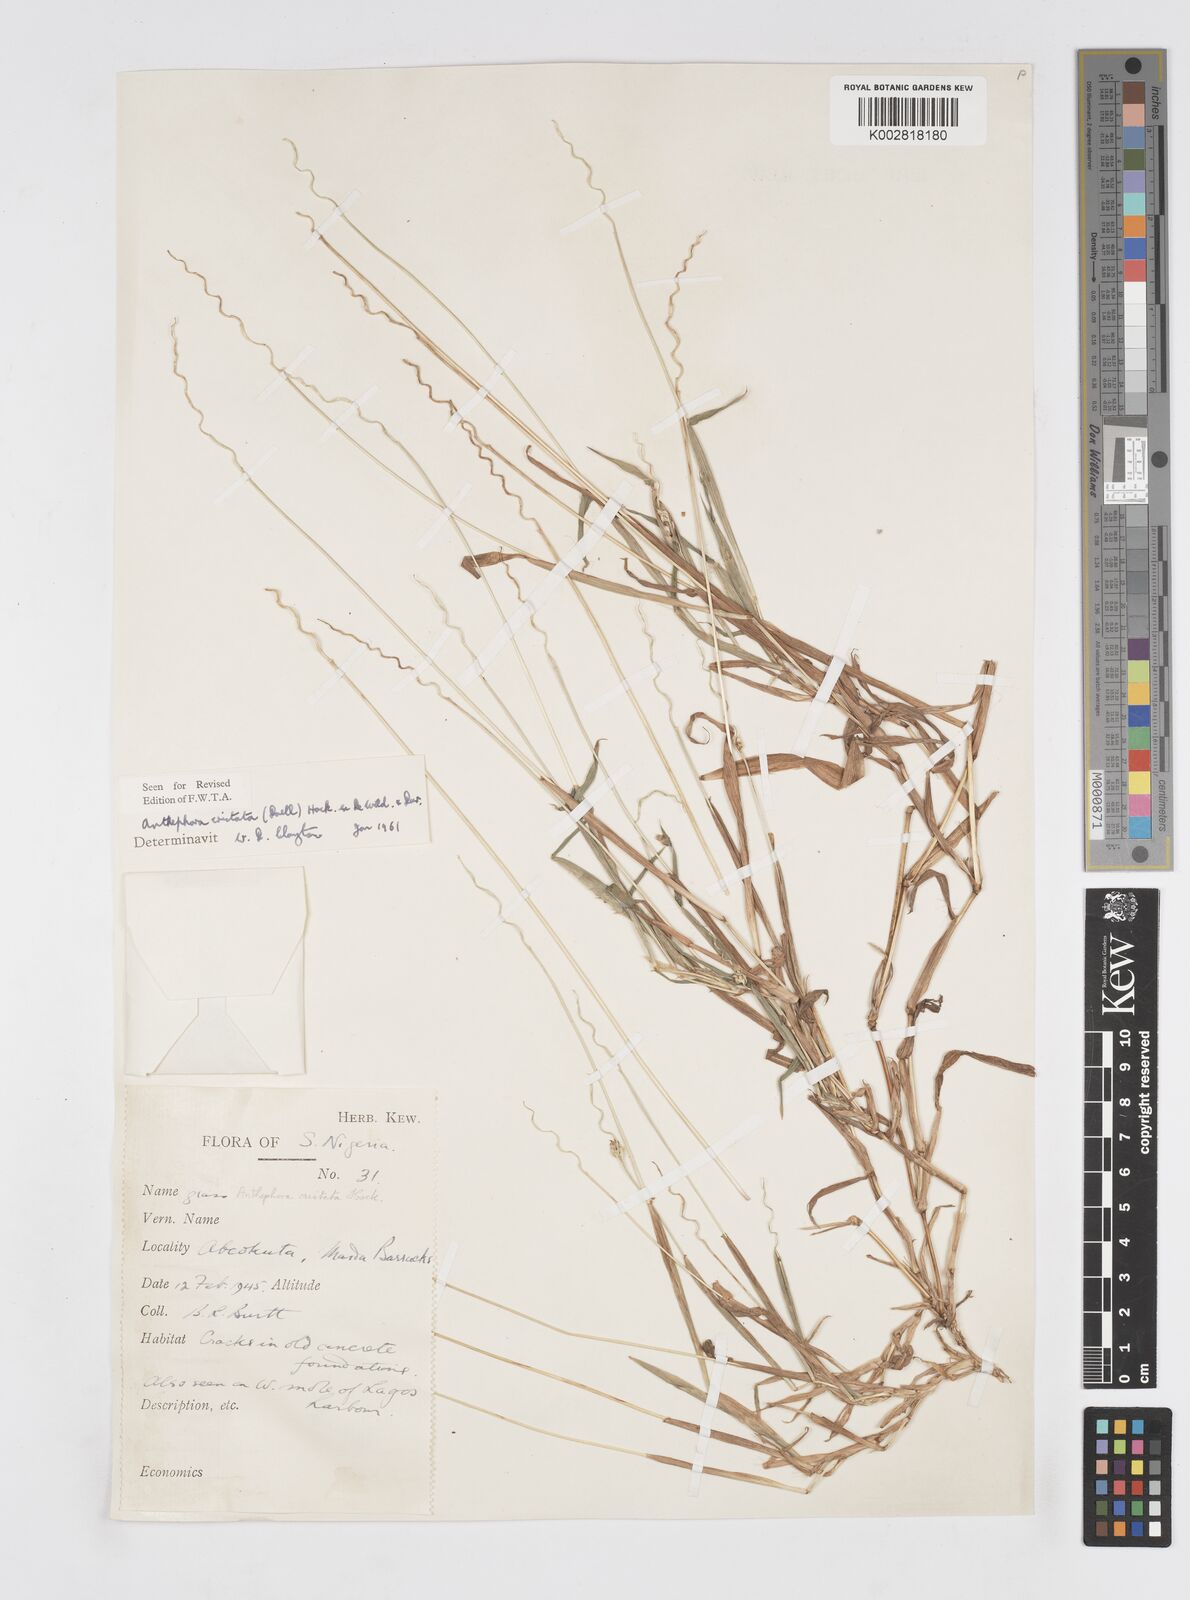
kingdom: Plantae
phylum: Tracheophyta
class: Liliopsida
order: Poales
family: Poaceae
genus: Anthephora
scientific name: Anthephora cristata
